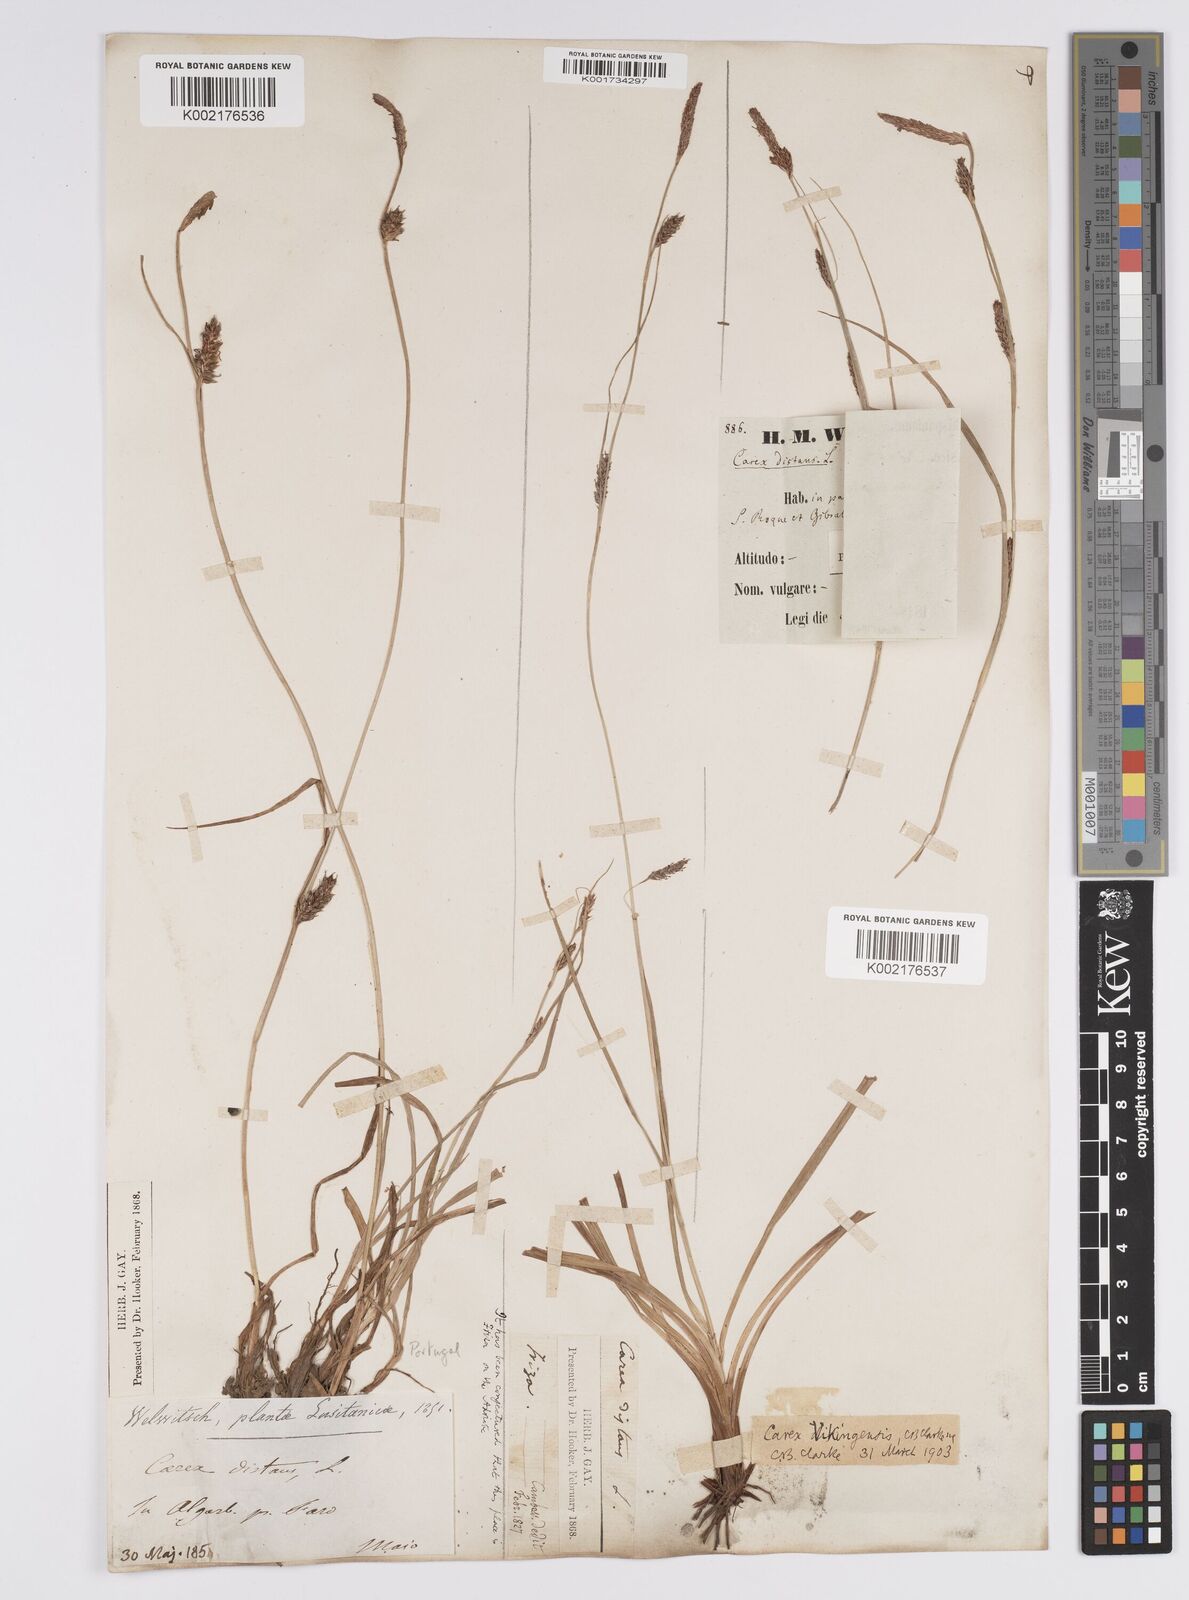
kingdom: Plantae
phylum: Tracheophyta
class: Liliopsida
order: Poales
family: Cyperaceae
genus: Carex
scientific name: Carex distans
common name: Distant sedge
